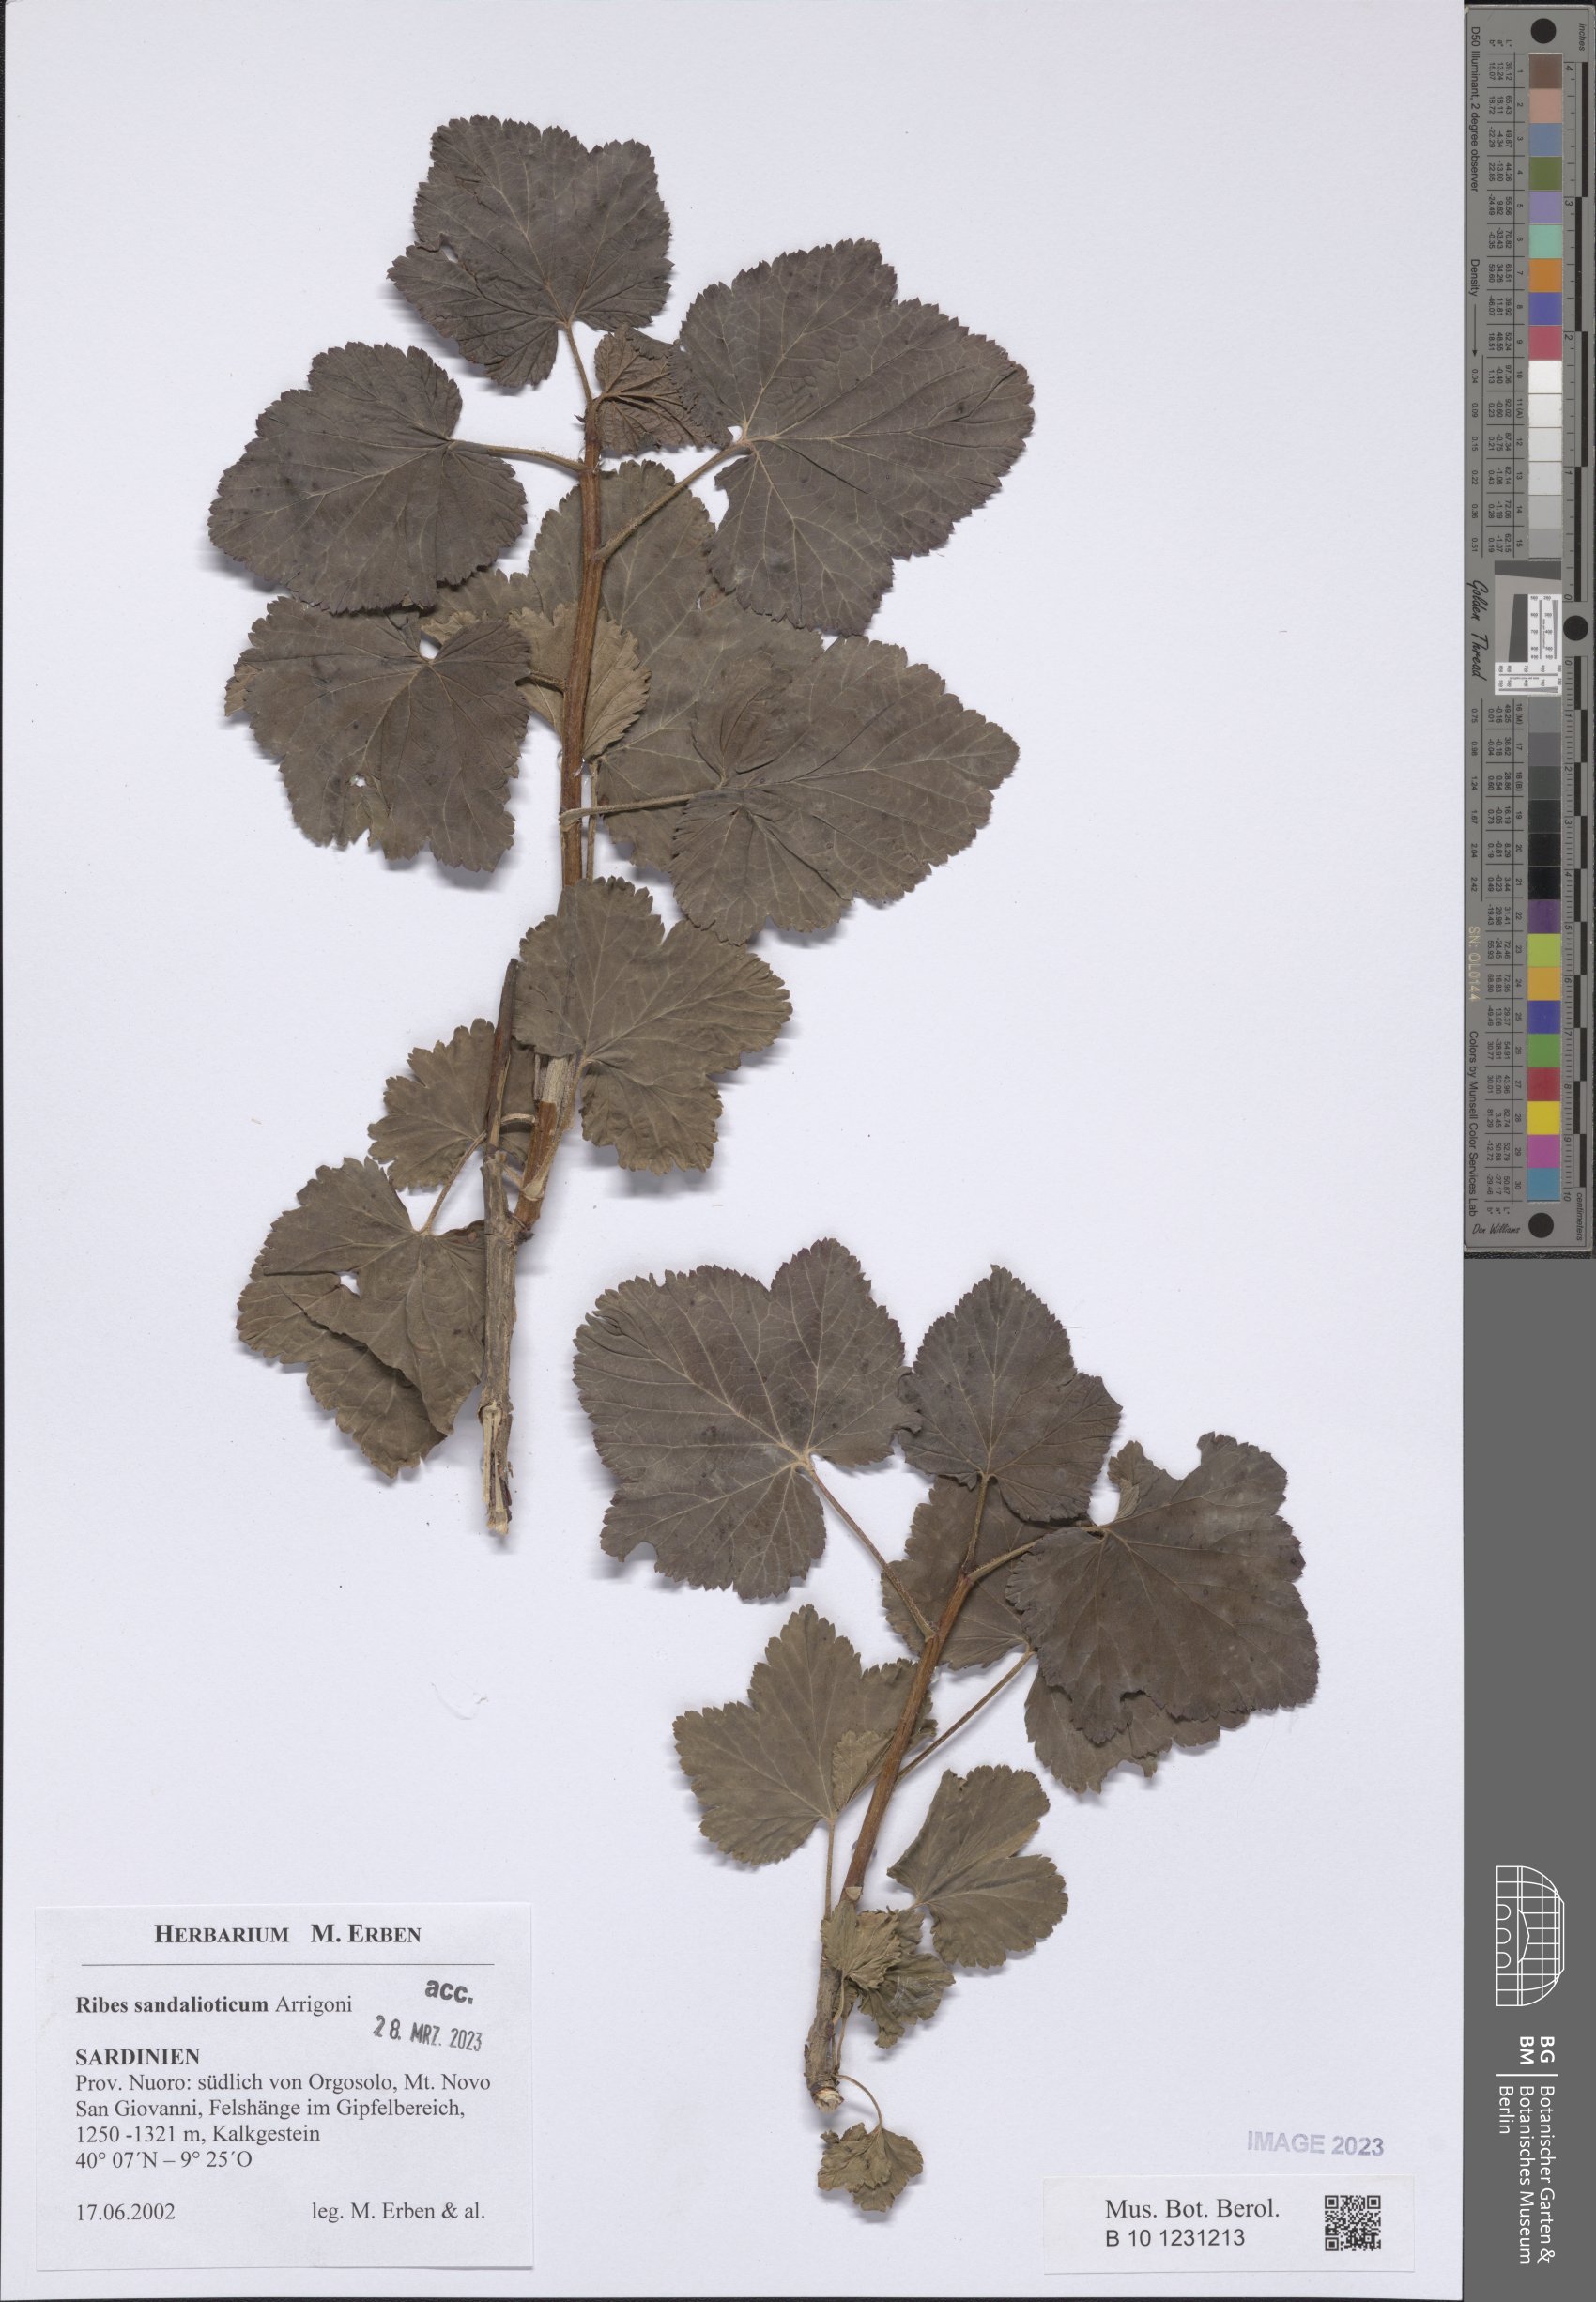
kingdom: Plantae
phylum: Tracheophyta
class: Magnoliopsida
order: Saxifragales
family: Grossulariaceae
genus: Ribes
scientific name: Ribes multiflorum
